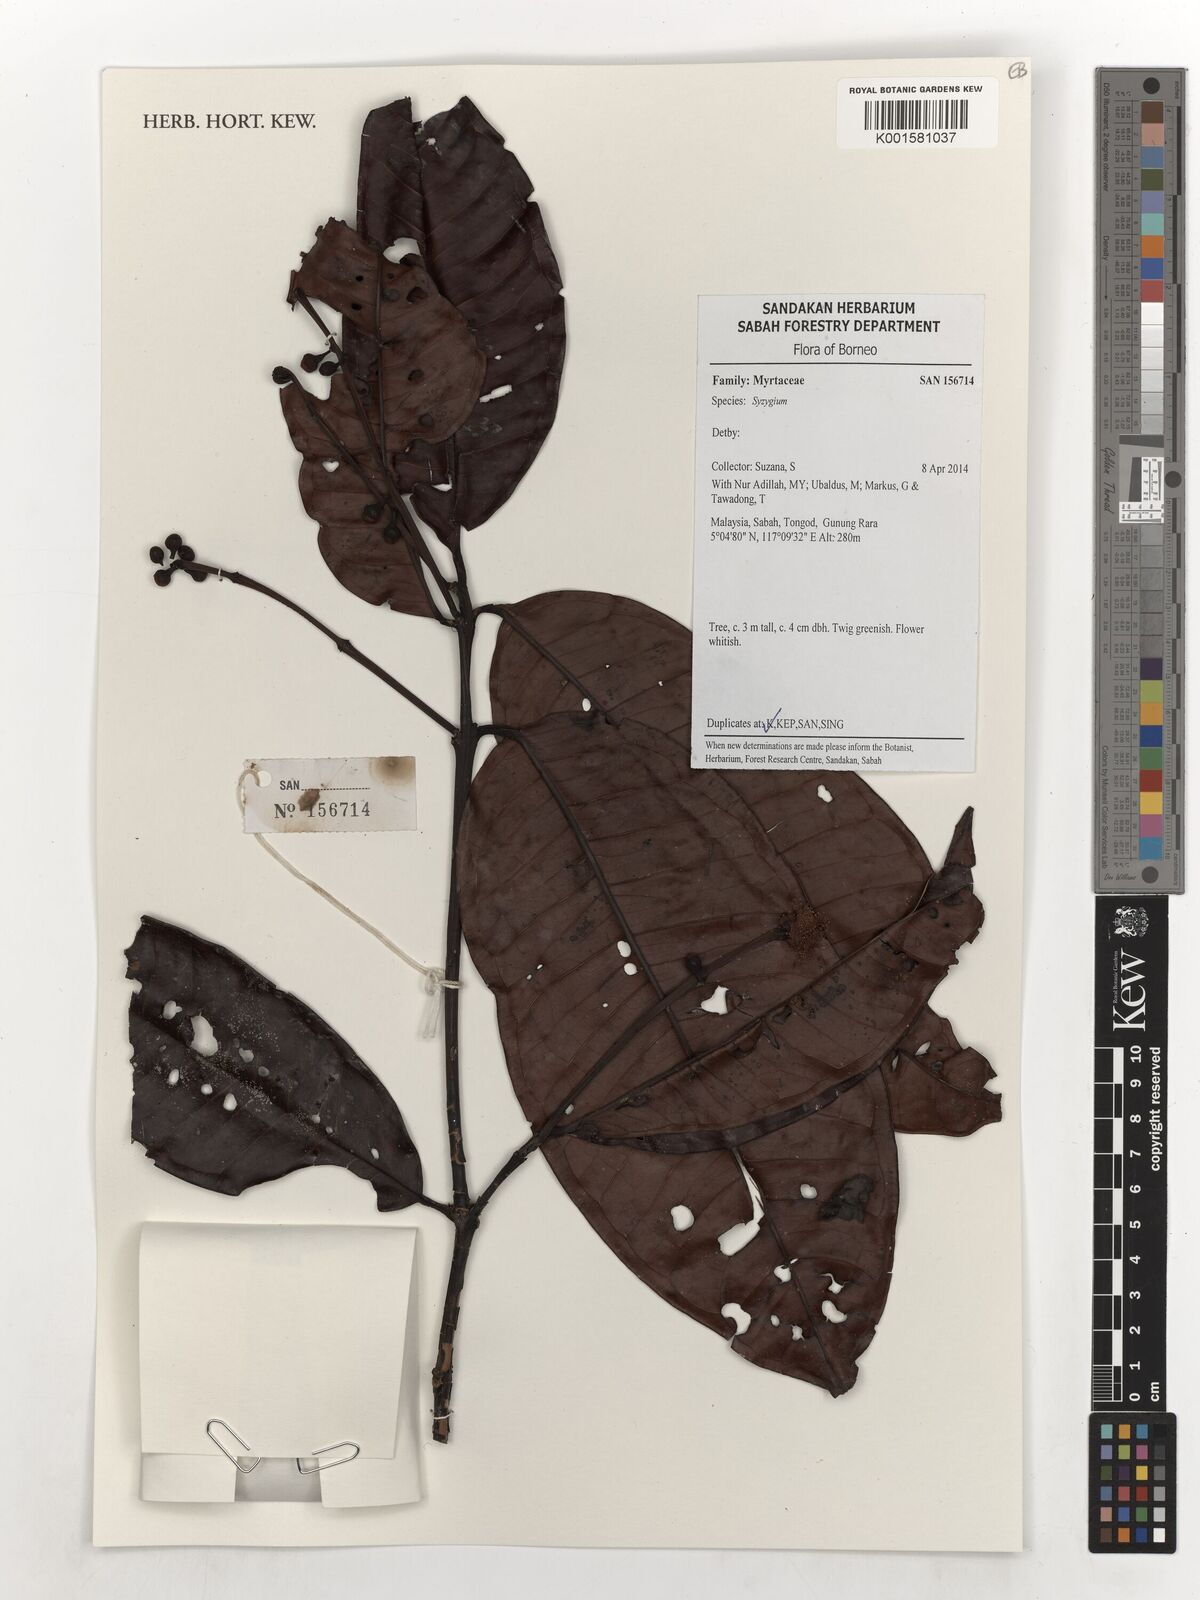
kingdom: Plantae
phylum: Tracheophyta
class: Magnoliopsida
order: Myrtales
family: Myrtaceae
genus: Syzygium
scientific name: Syzygium
